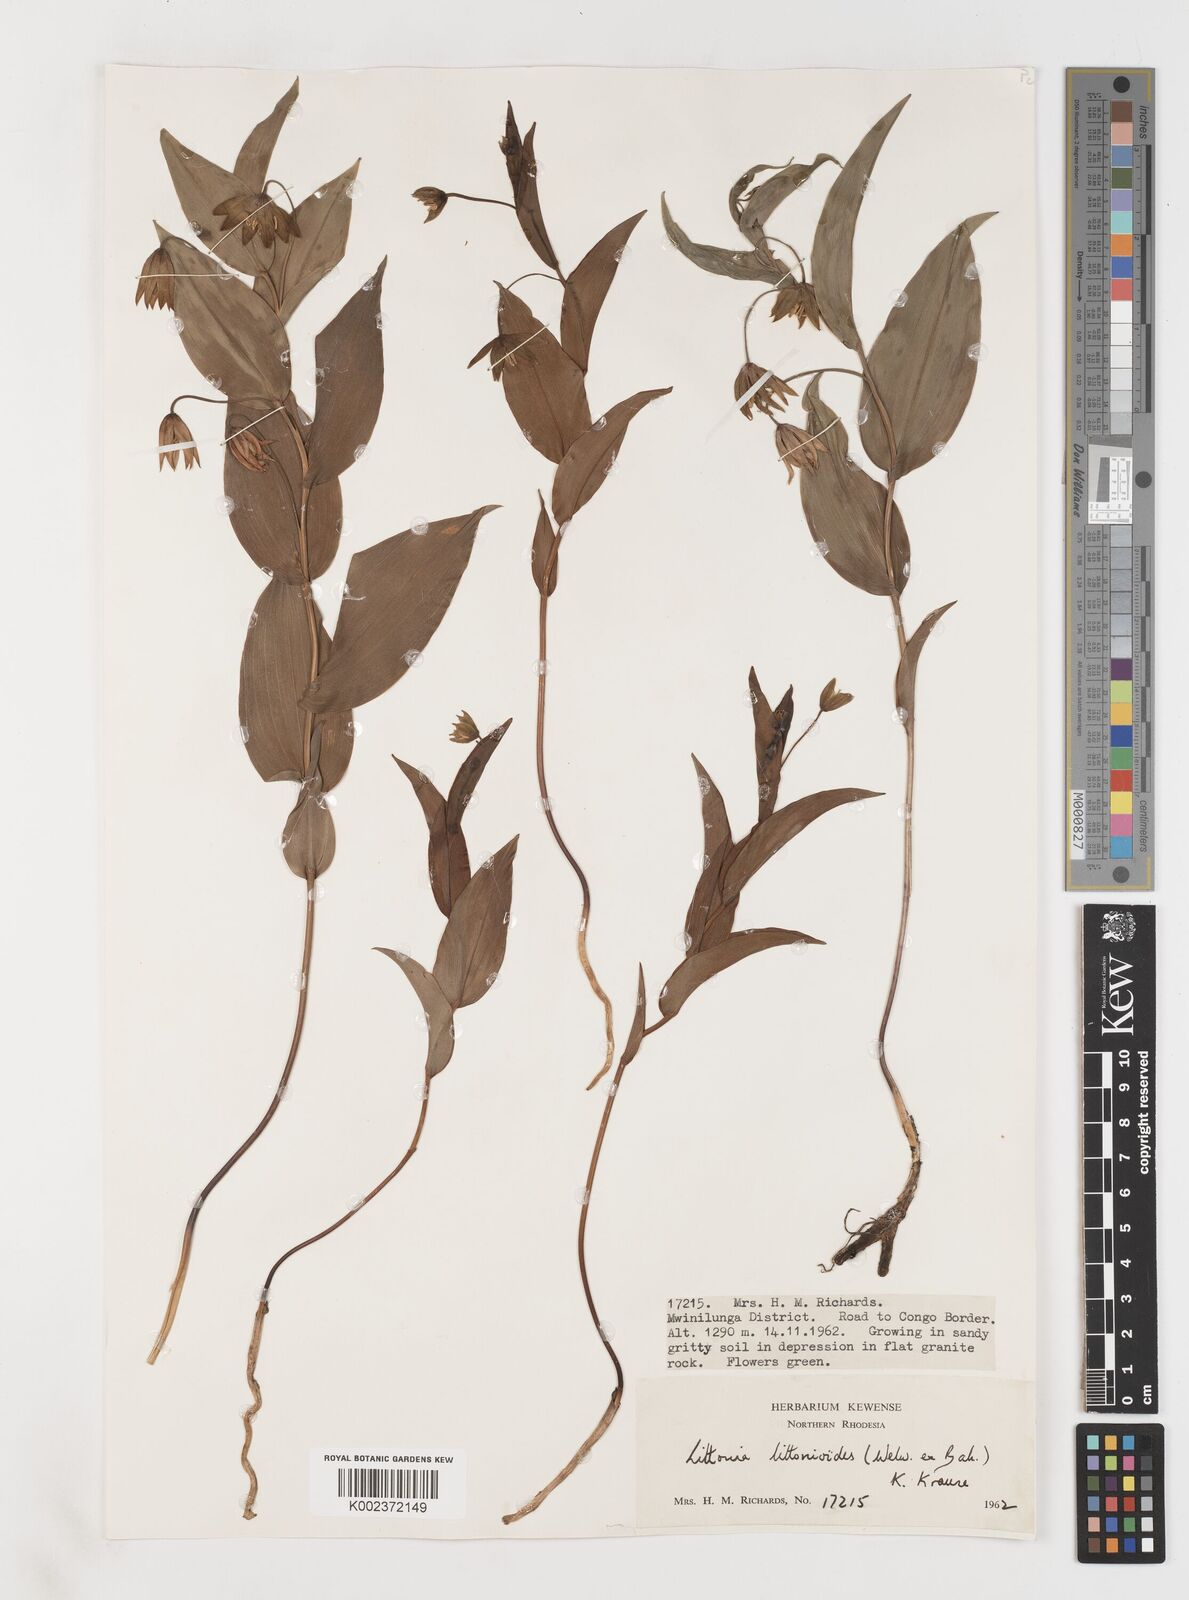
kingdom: Plantae
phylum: Tracheophyta
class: Liliopsida
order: Liliales
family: Colchicaceae
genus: Gloriosa
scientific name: Gloriosa littonioides
